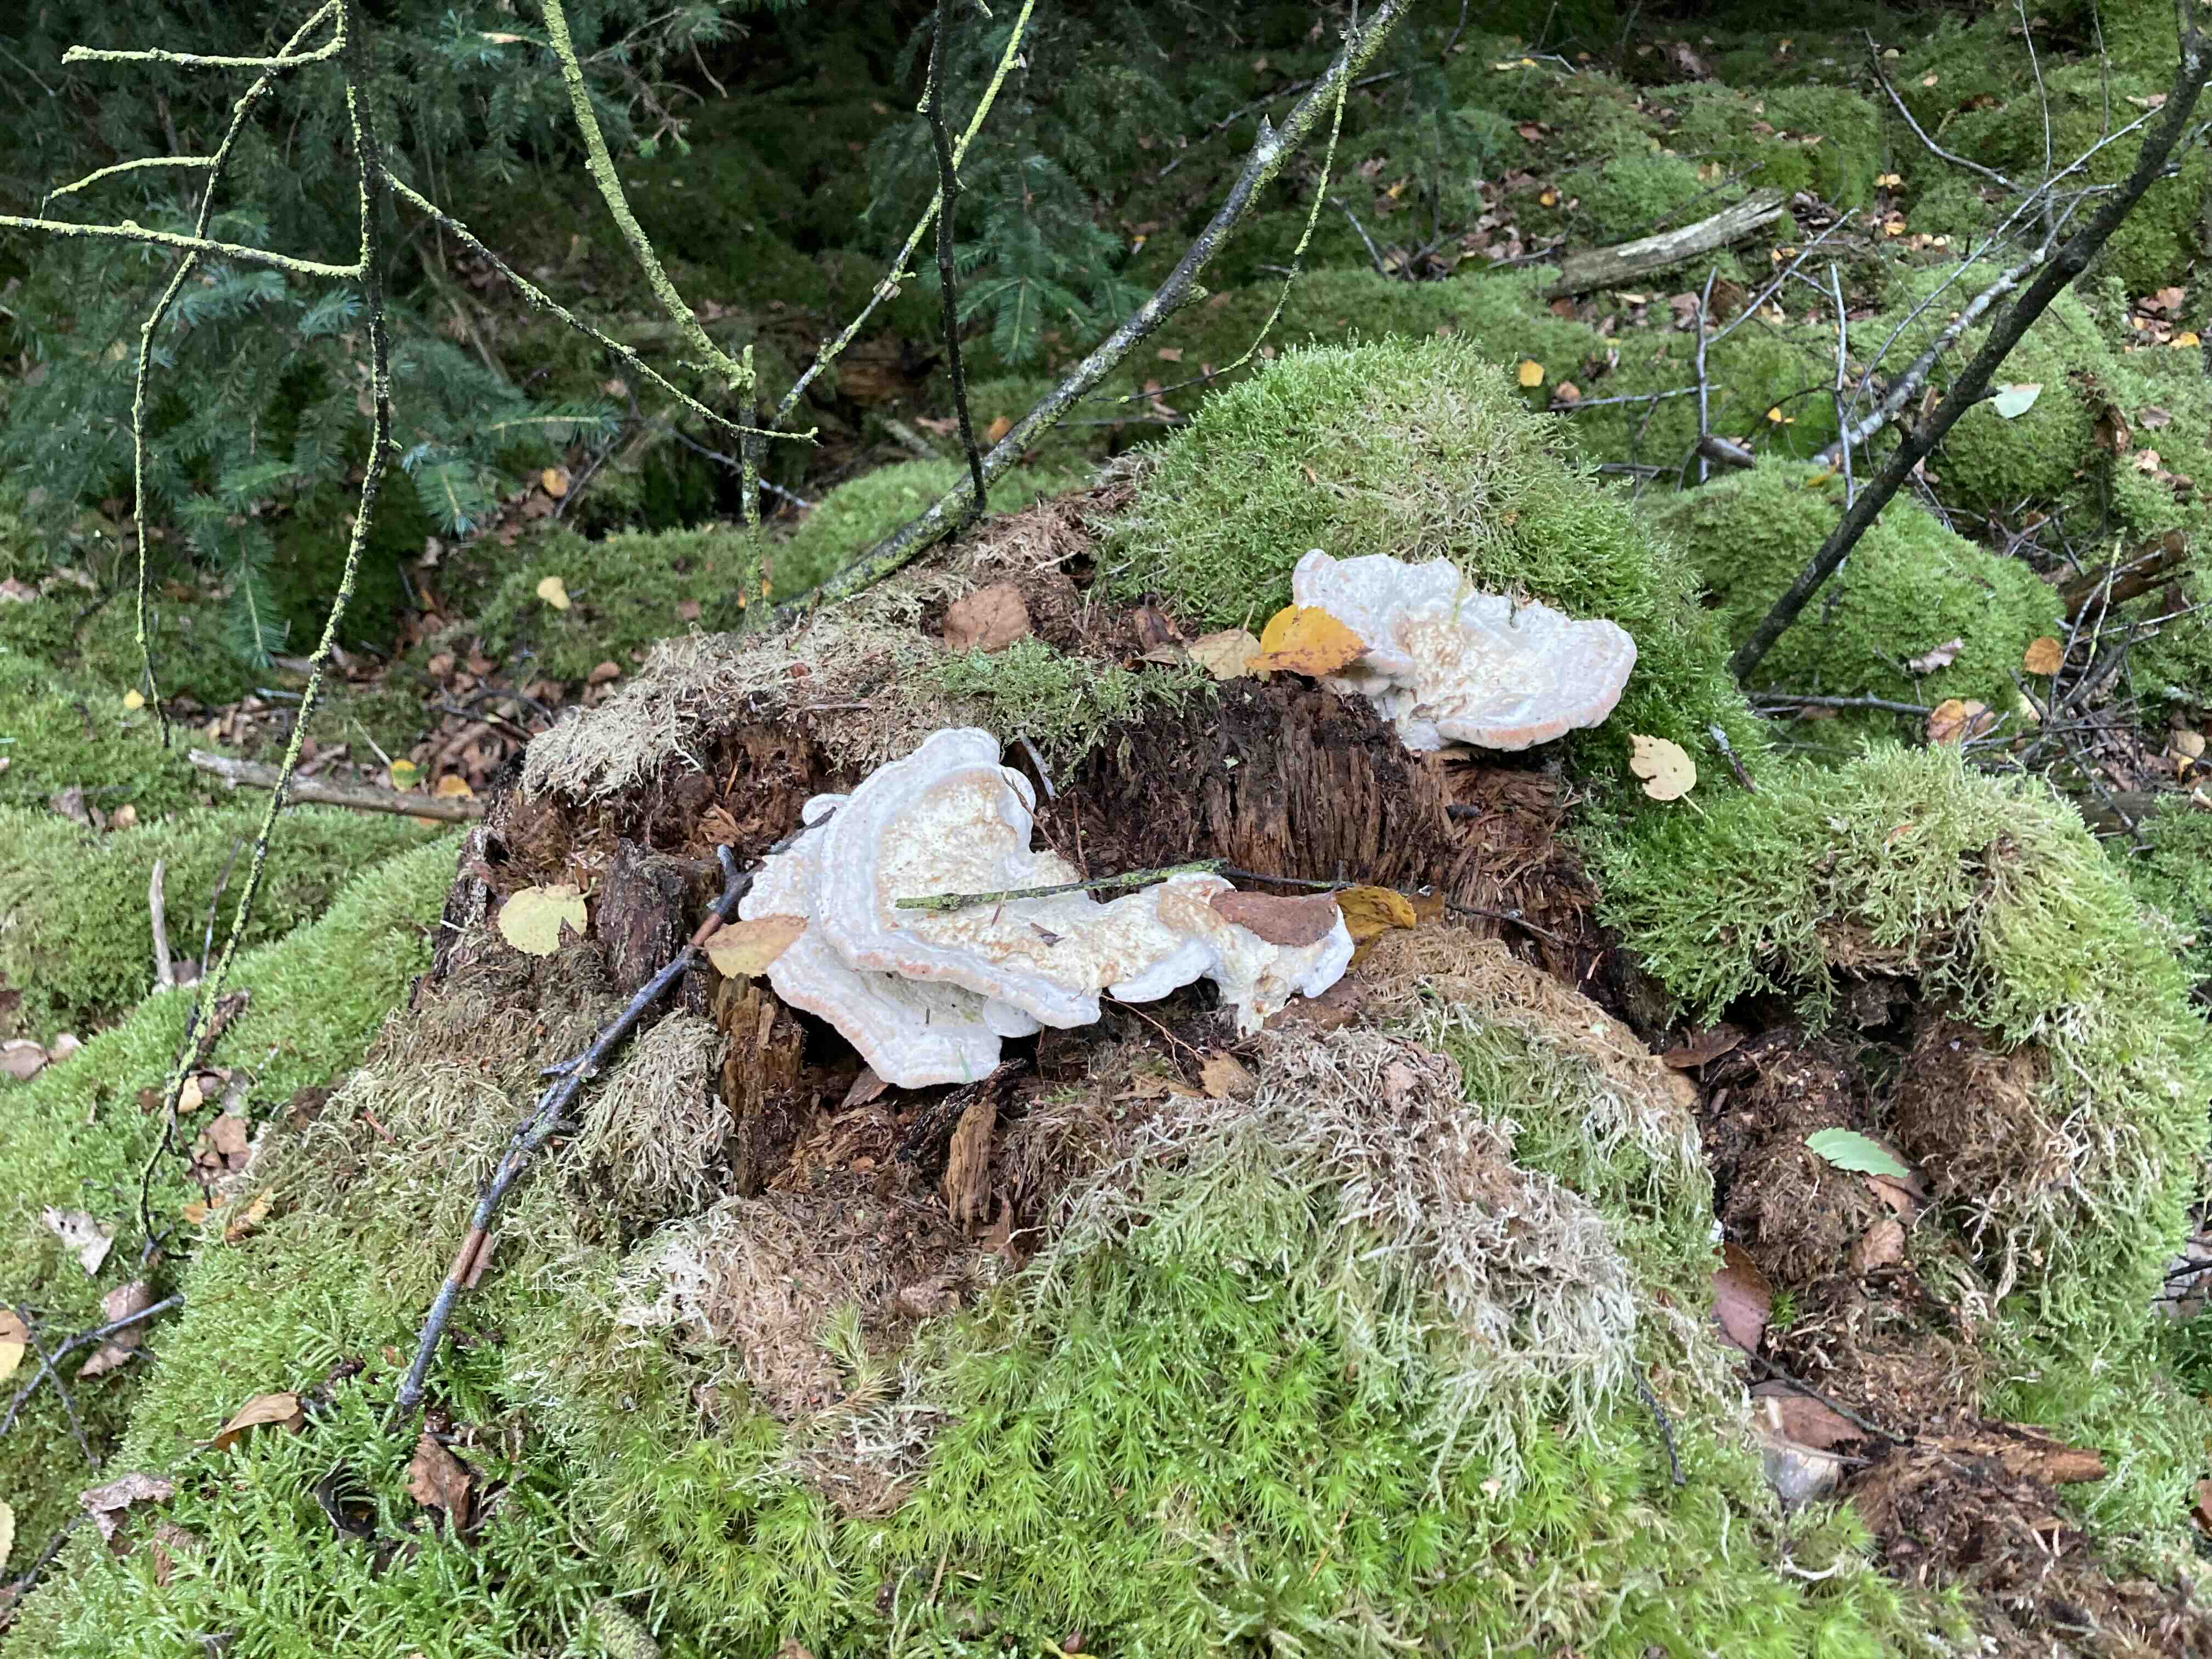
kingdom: Fungi
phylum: Basidiomycota
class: Agaricomycetes
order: Polyporales
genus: Calcipostia
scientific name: Calcipostia guttulata
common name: dråbe-kødporesvamp
